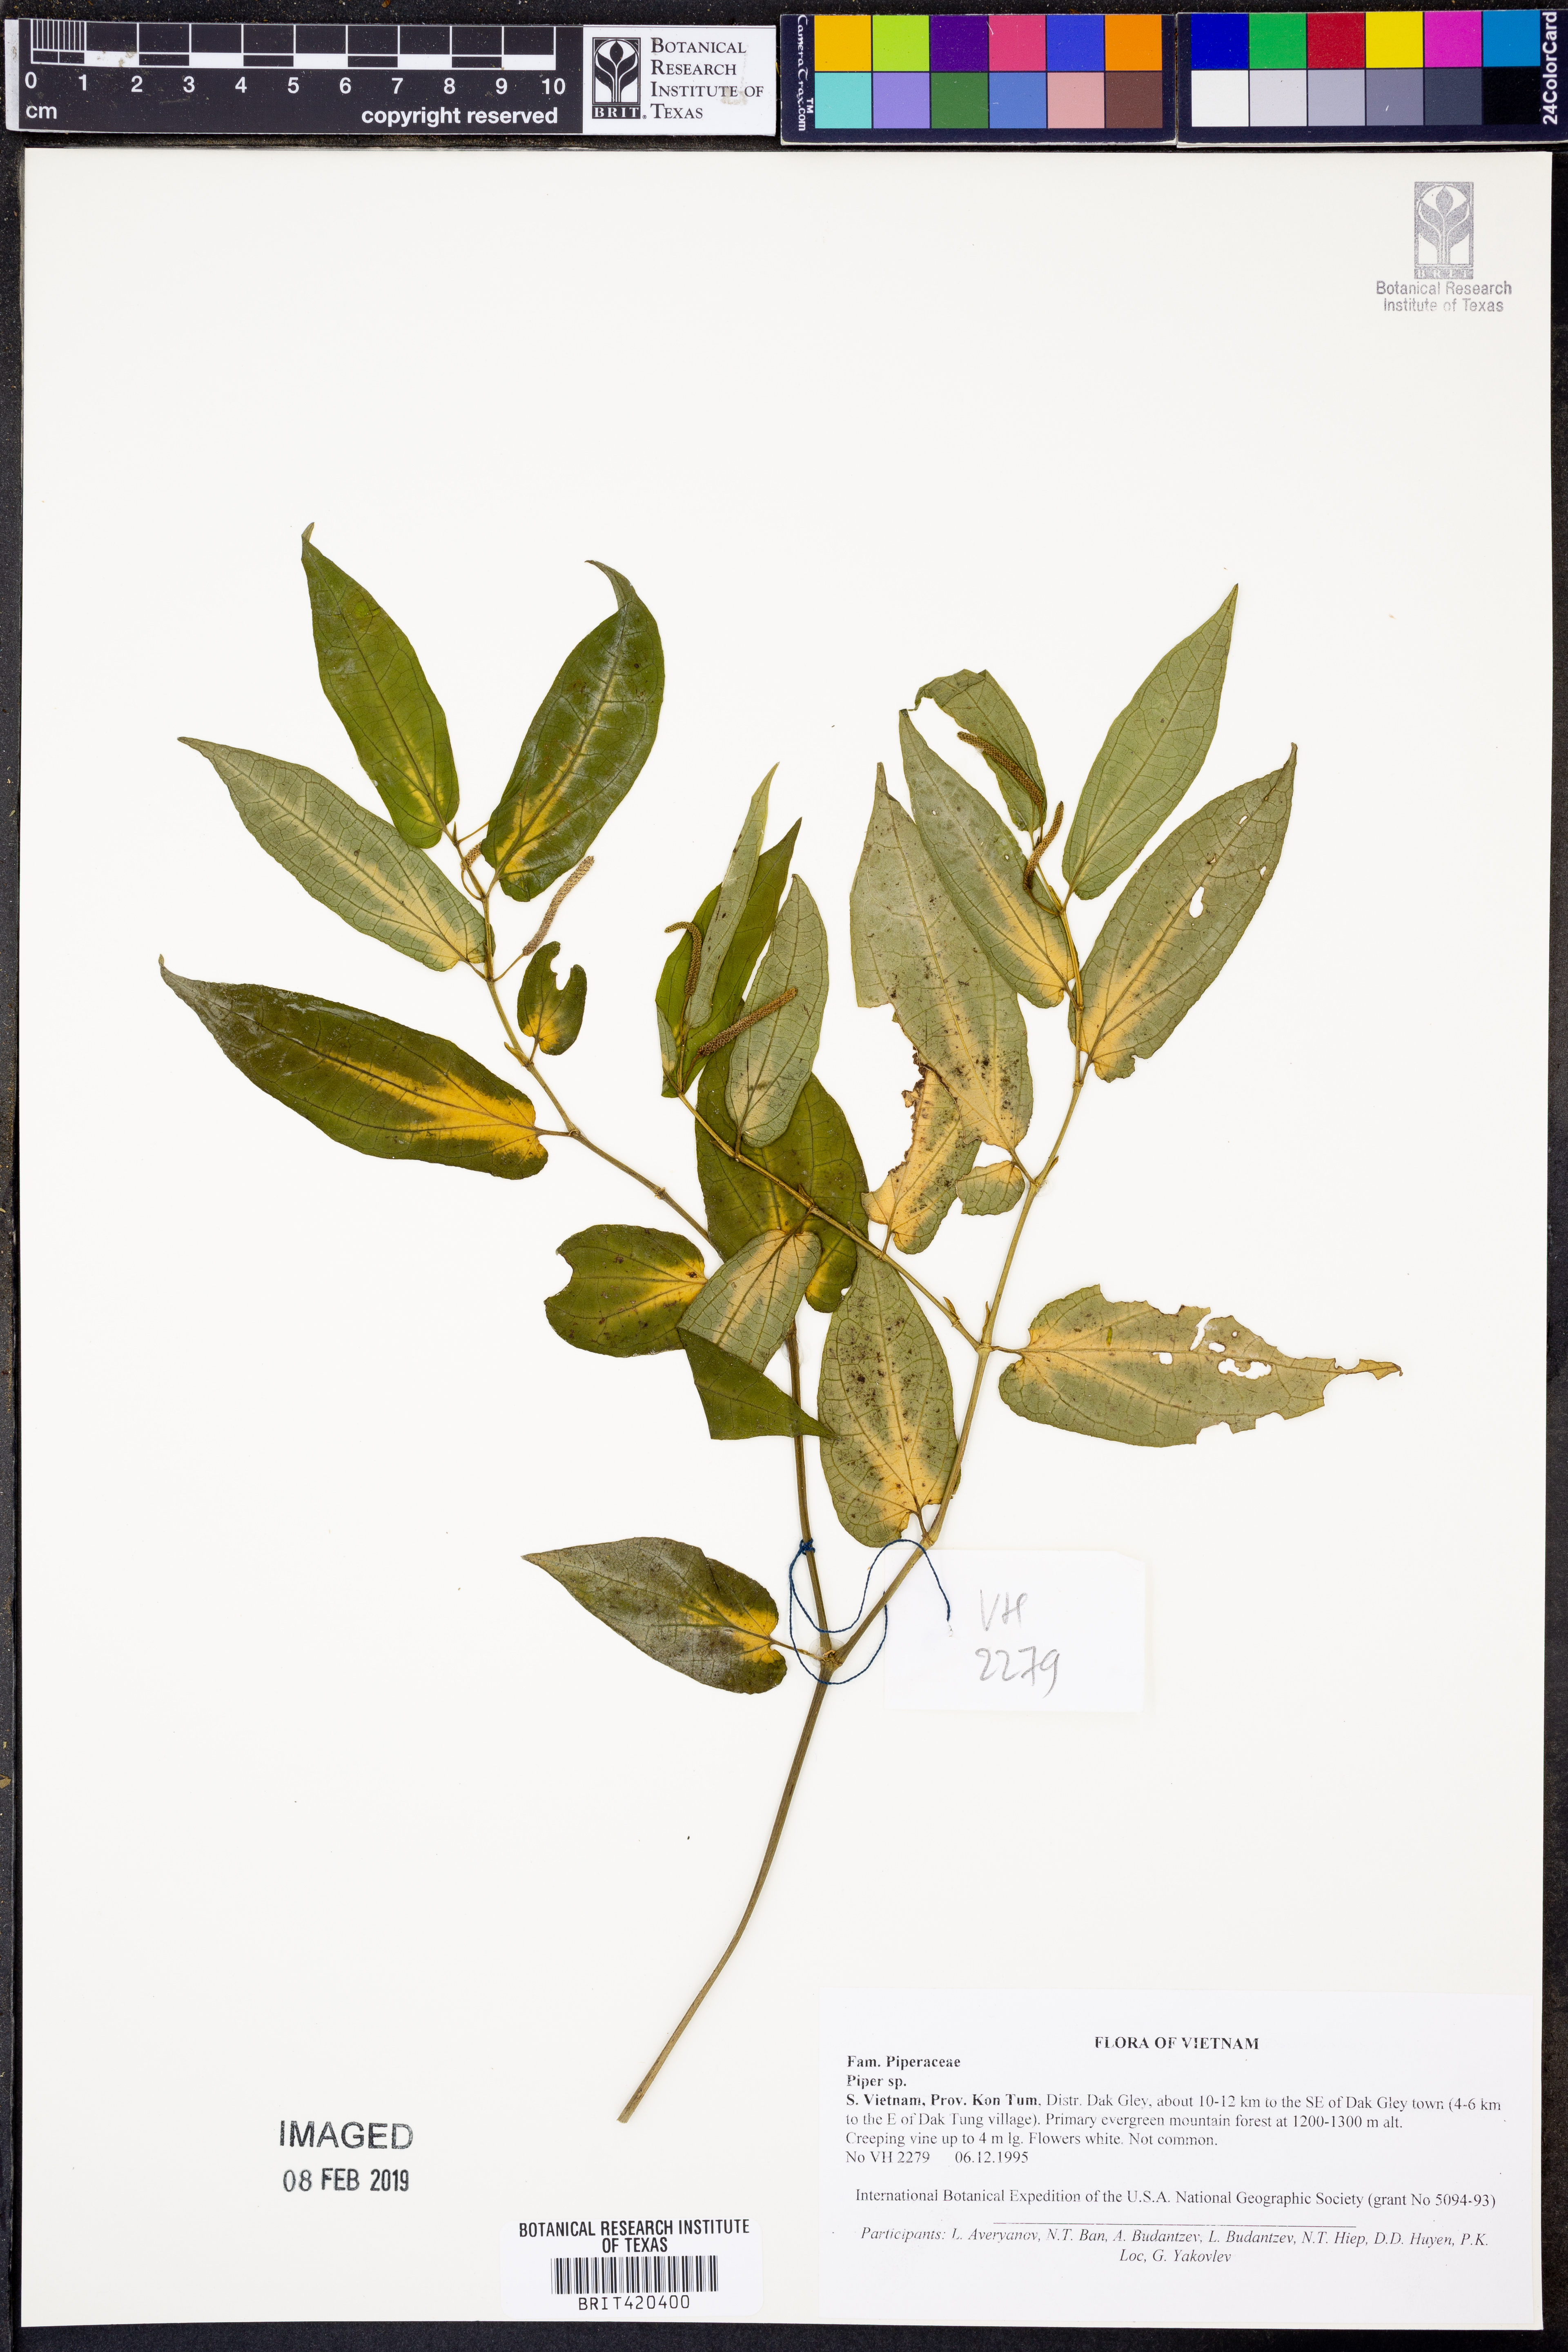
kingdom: Plantae
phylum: Tracheophyta
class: Magnoliopsida
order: Piperales
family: Piperaceae
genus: Piper
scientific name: Piper
